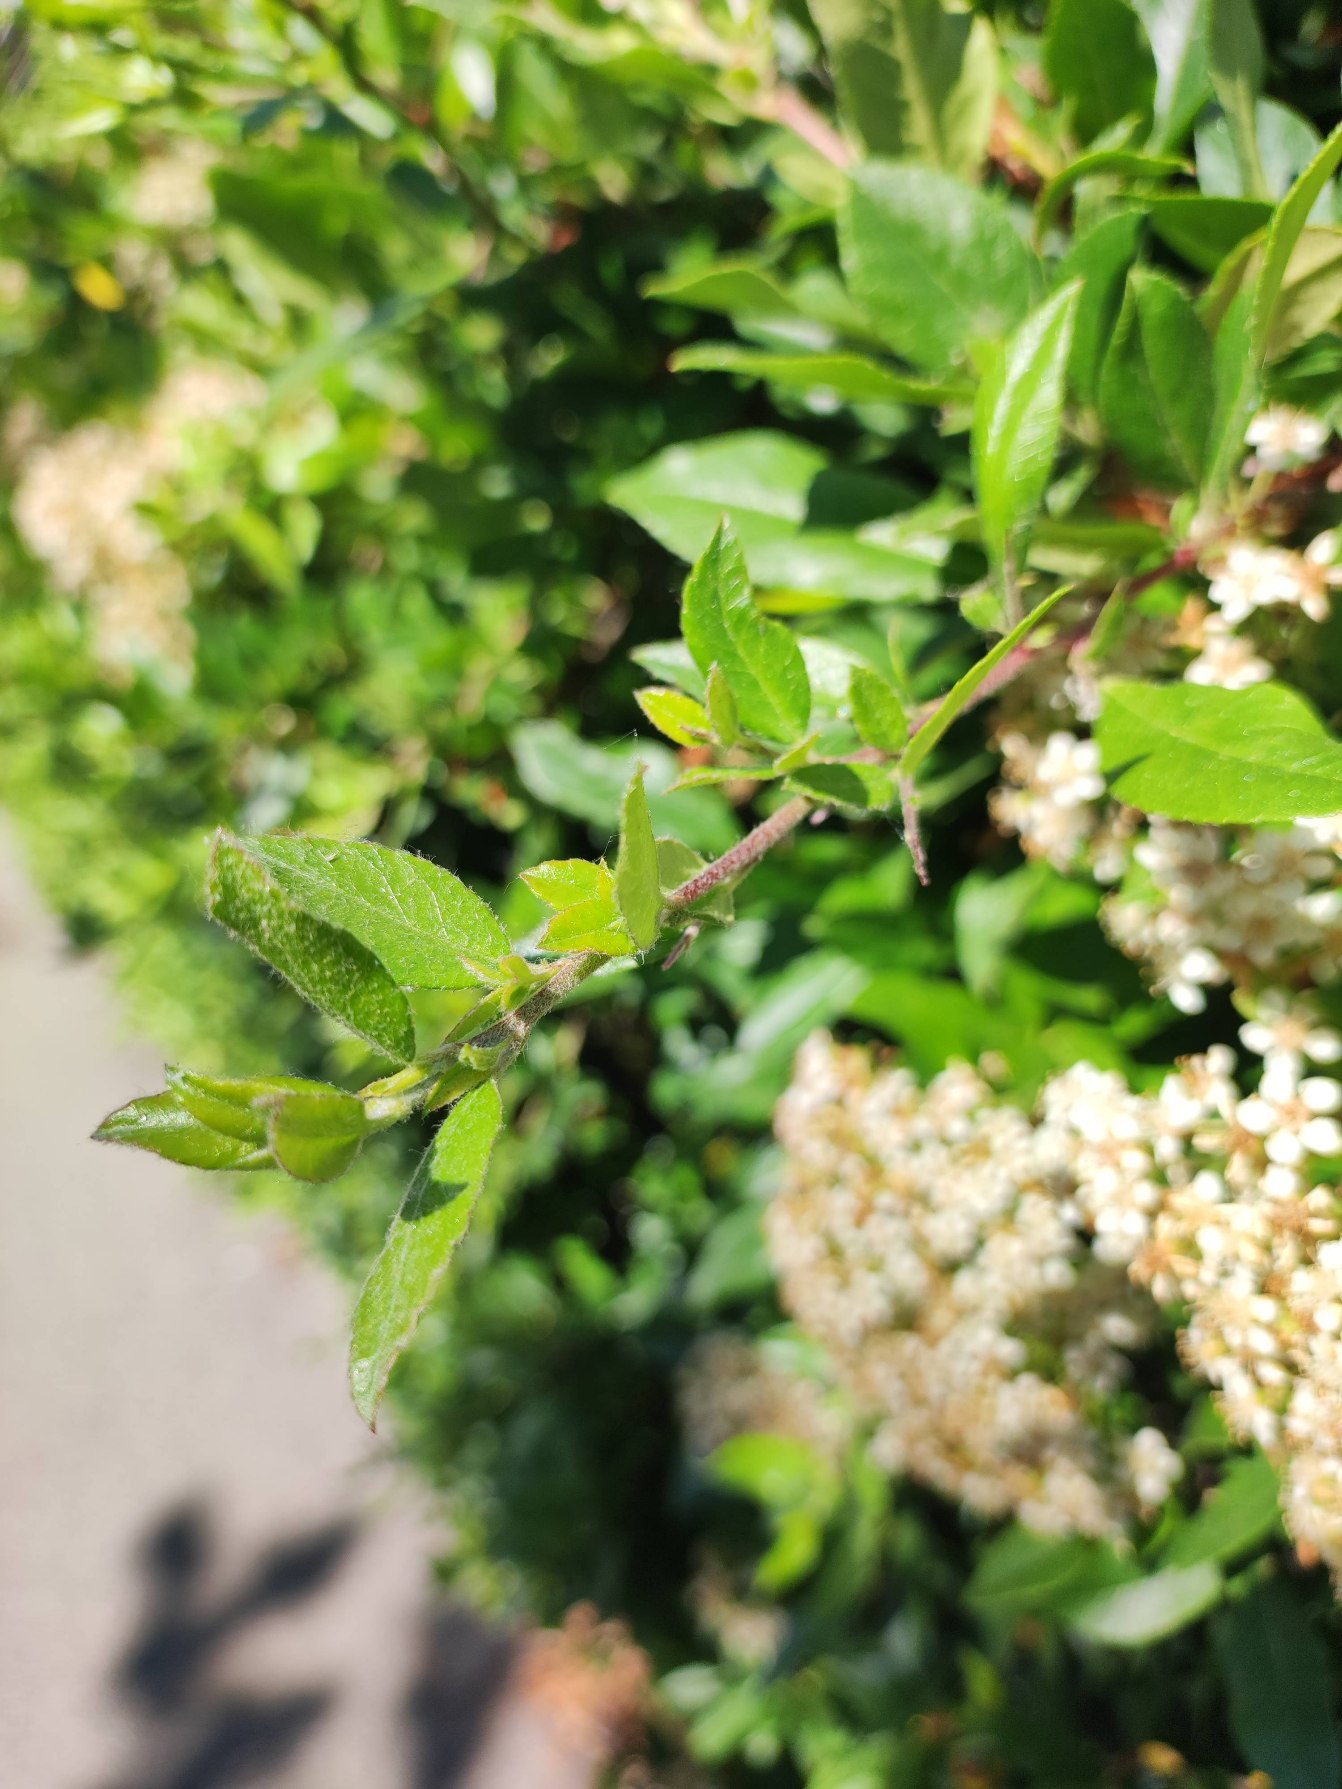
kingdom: Plantae
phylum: Tracheophyta
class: Magnoliopsida
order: Rosales
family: Rosaceae
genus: Pyracantha
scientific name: Pyracantha coccinea
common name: Ildtorn
